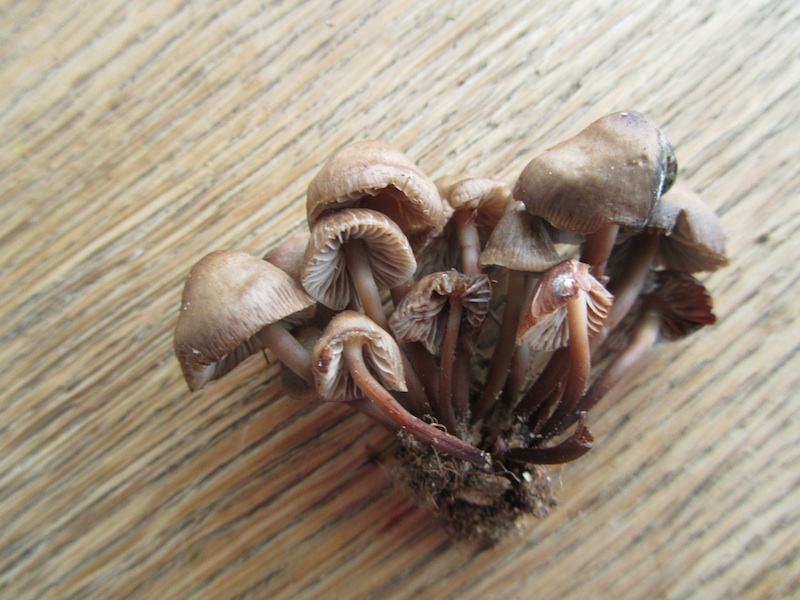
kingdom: Fungi
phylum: Basidiomycota
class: Agaricomycetes
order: Agaricales
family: Mycenaceae
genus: Mycena
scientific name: Mycena maculata
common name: rødplettet huesvamp
